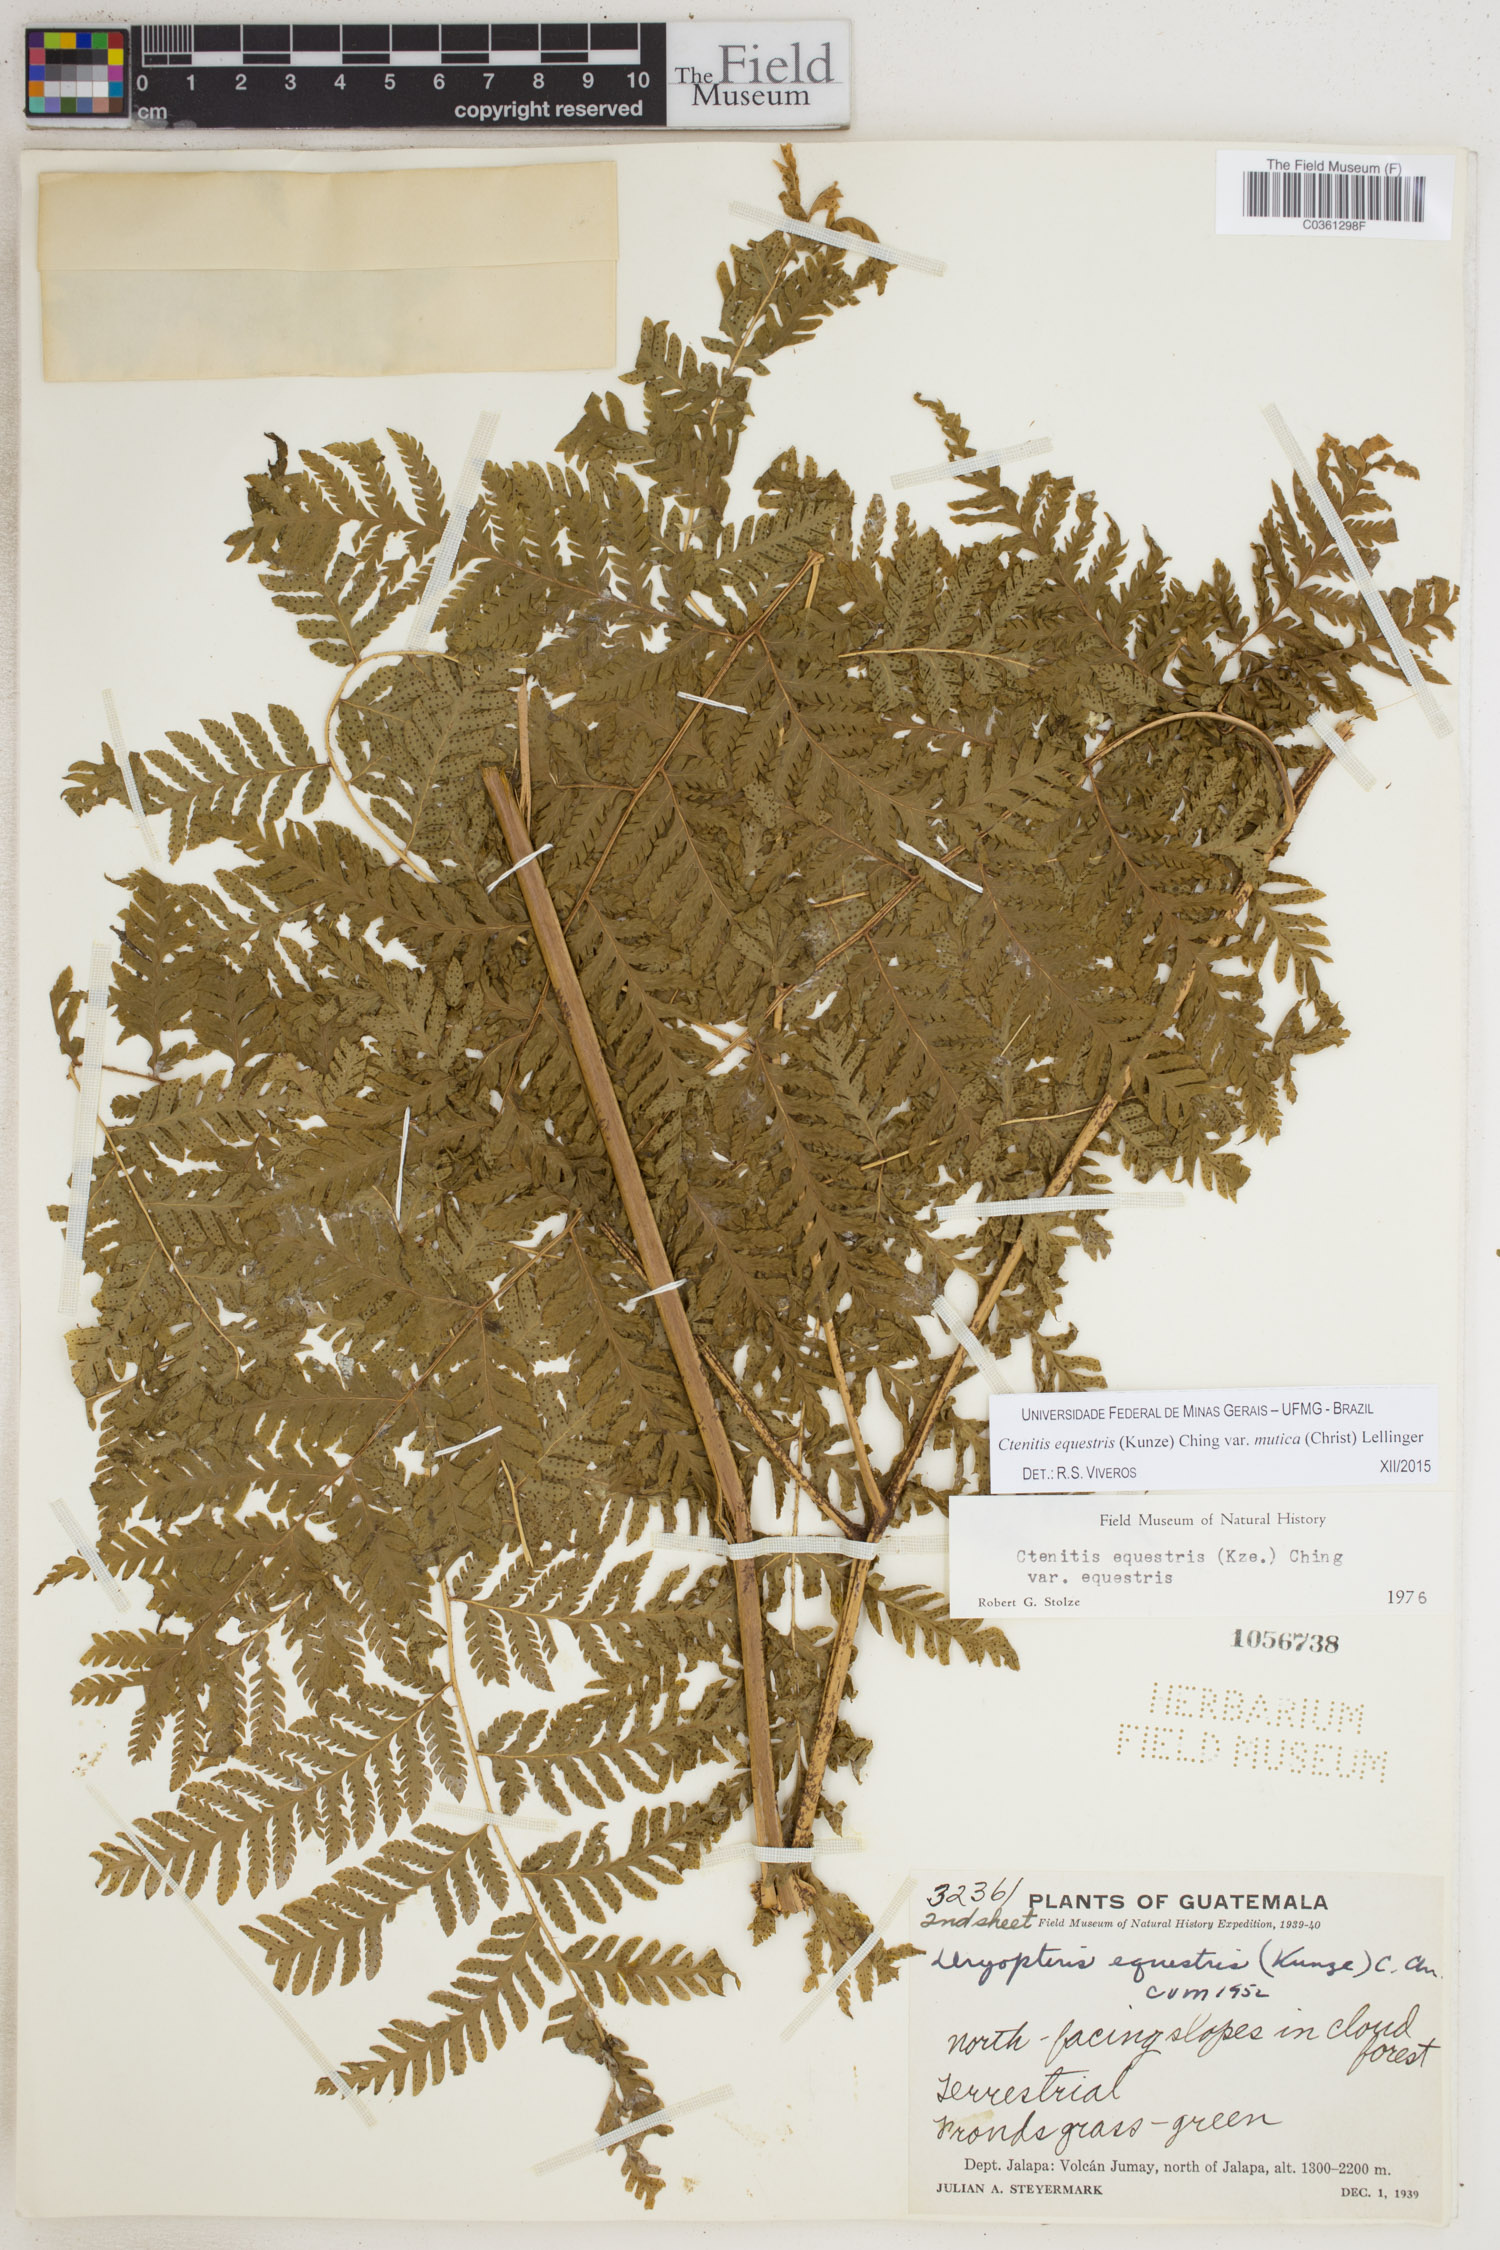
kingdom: Plantae
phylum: Tracheophyta
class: Polypodiopsida
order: Polypodiales
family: Dryopteridaceae
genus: Ctenitis
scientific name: Ctenitis equestris
